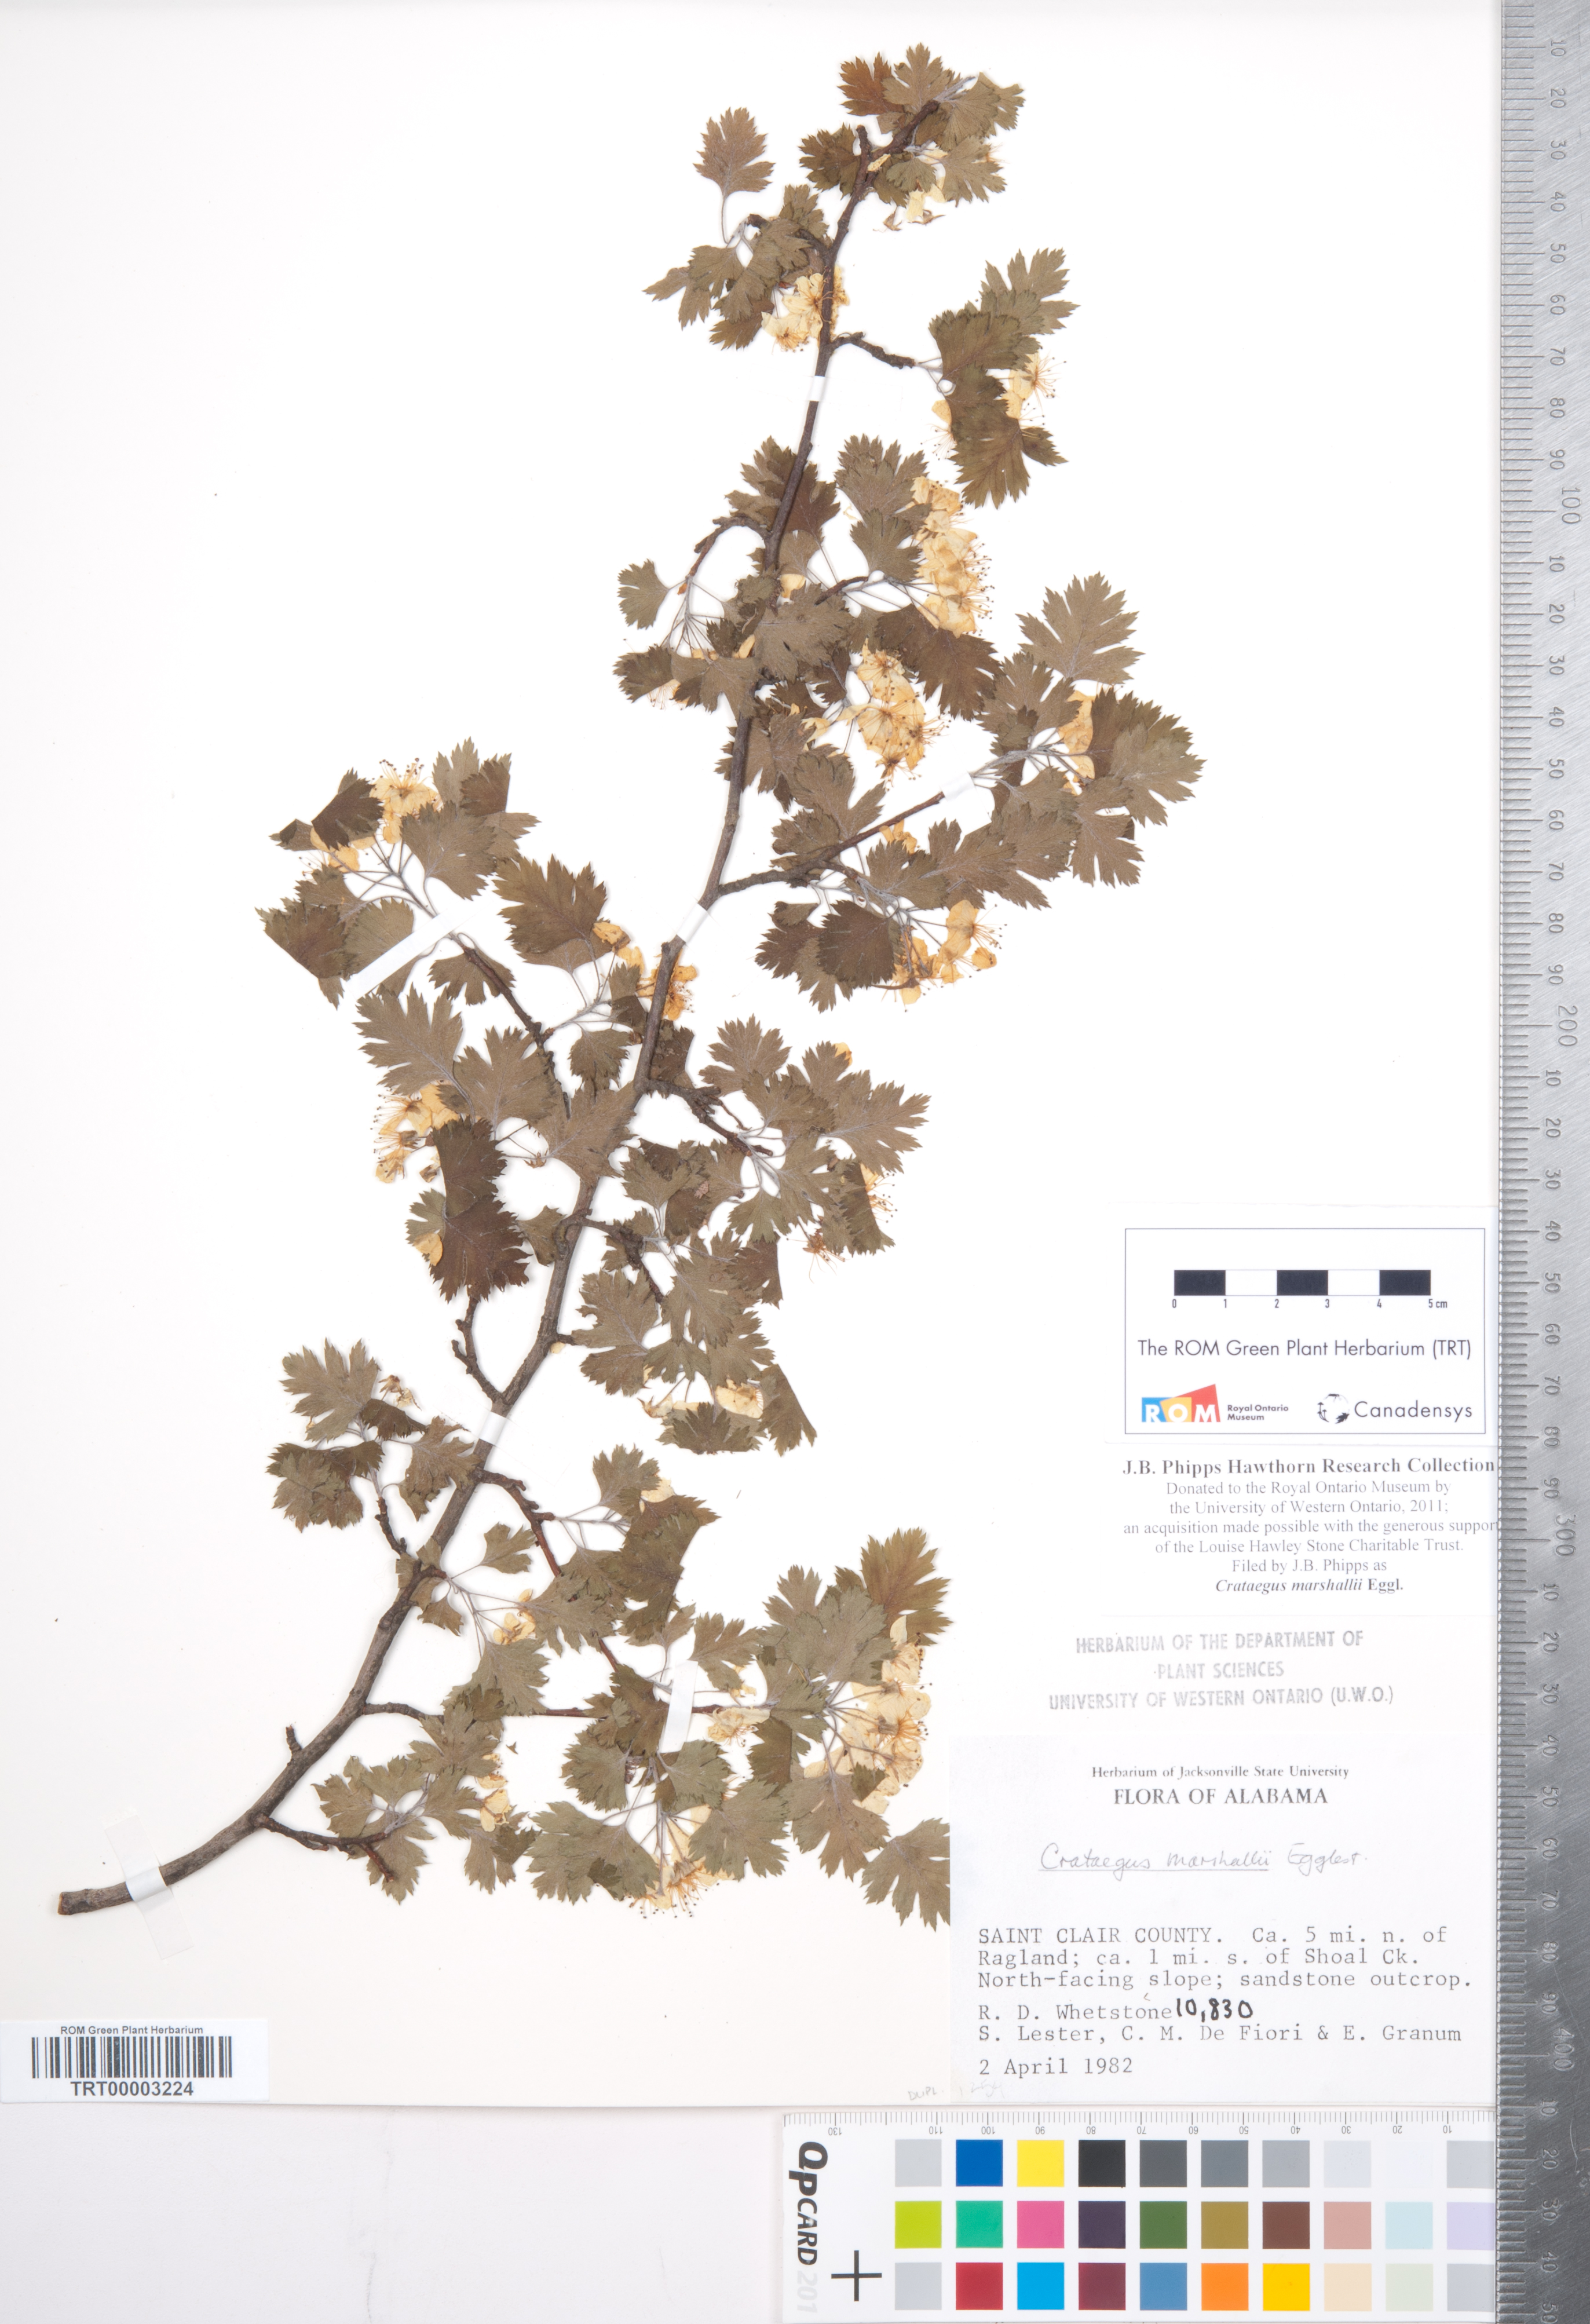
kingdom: Plantae
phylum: Tracheophyta
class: Magnoliopsida
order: Rosales
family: Rosaceae
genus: Crataegus
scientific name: Crataegus marshallii
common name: Parsley-hawthorn
